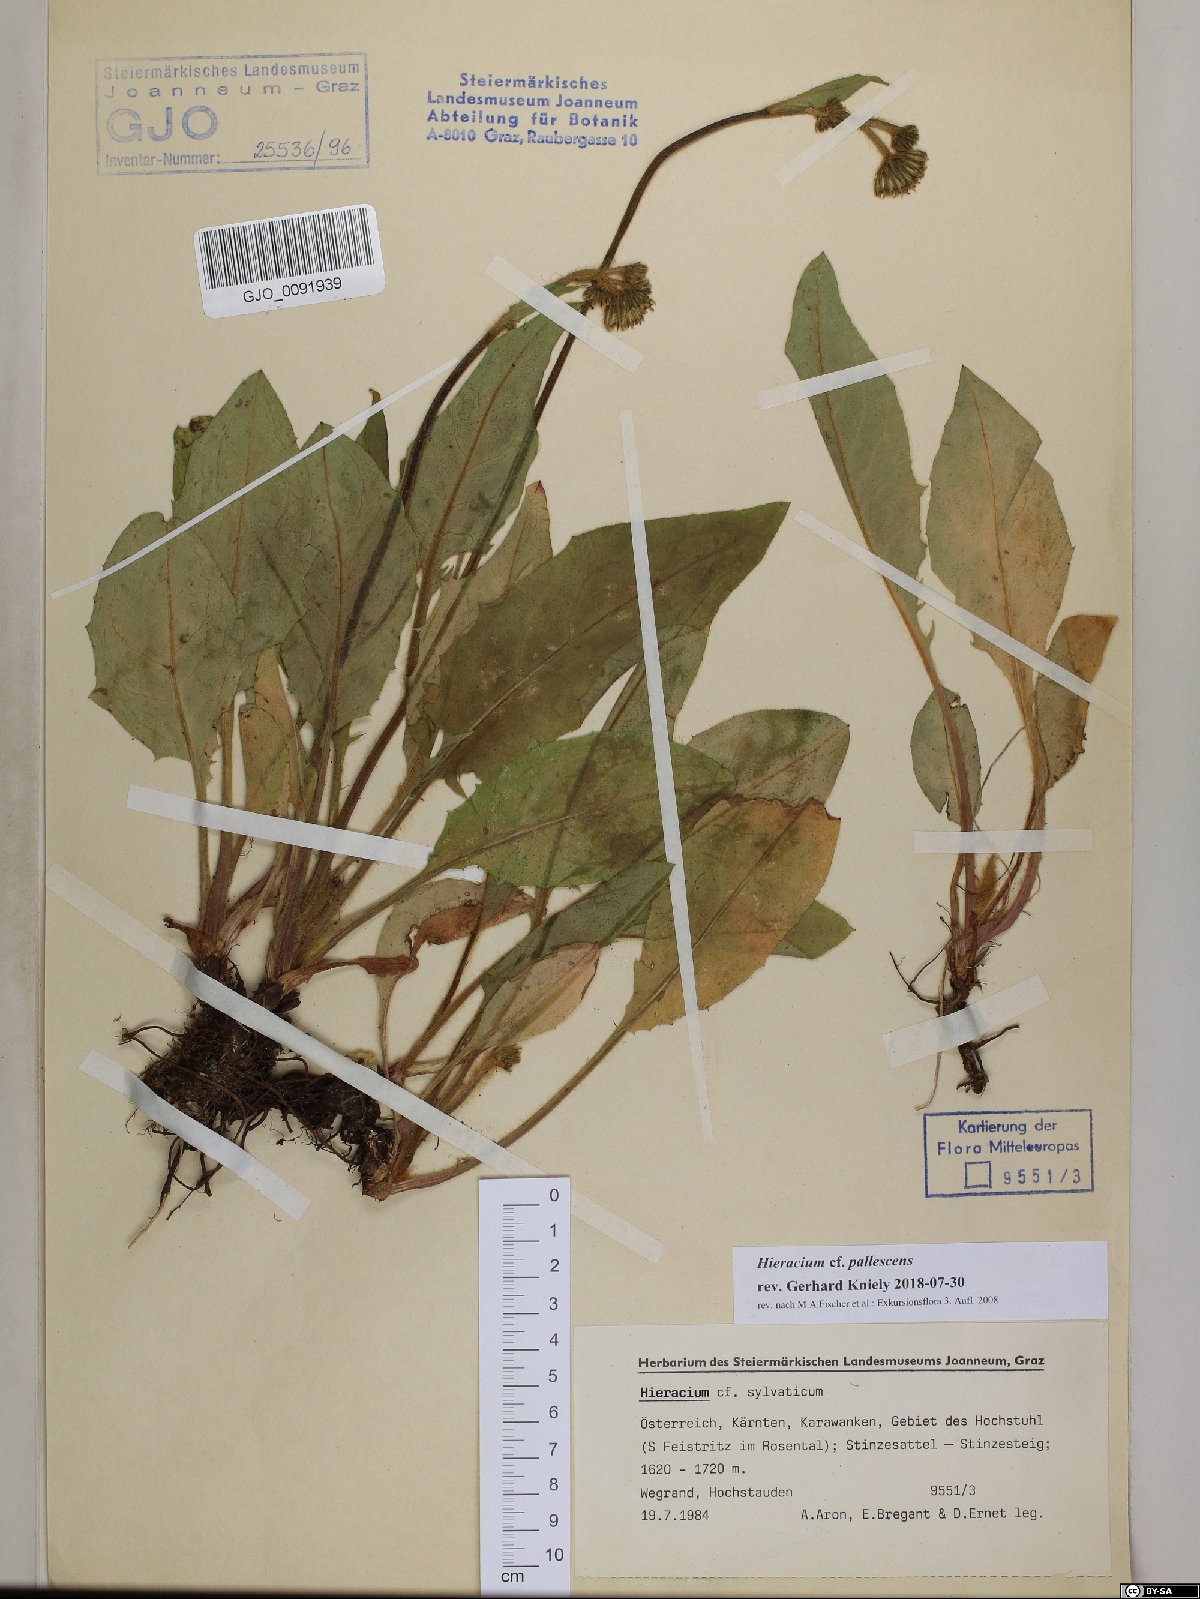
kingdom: Plantae
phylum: Tracheophyta
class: Magnoliopsida
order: Asterales
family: Asteraceae
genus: Hieracium
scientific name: Hieracium pallescens
